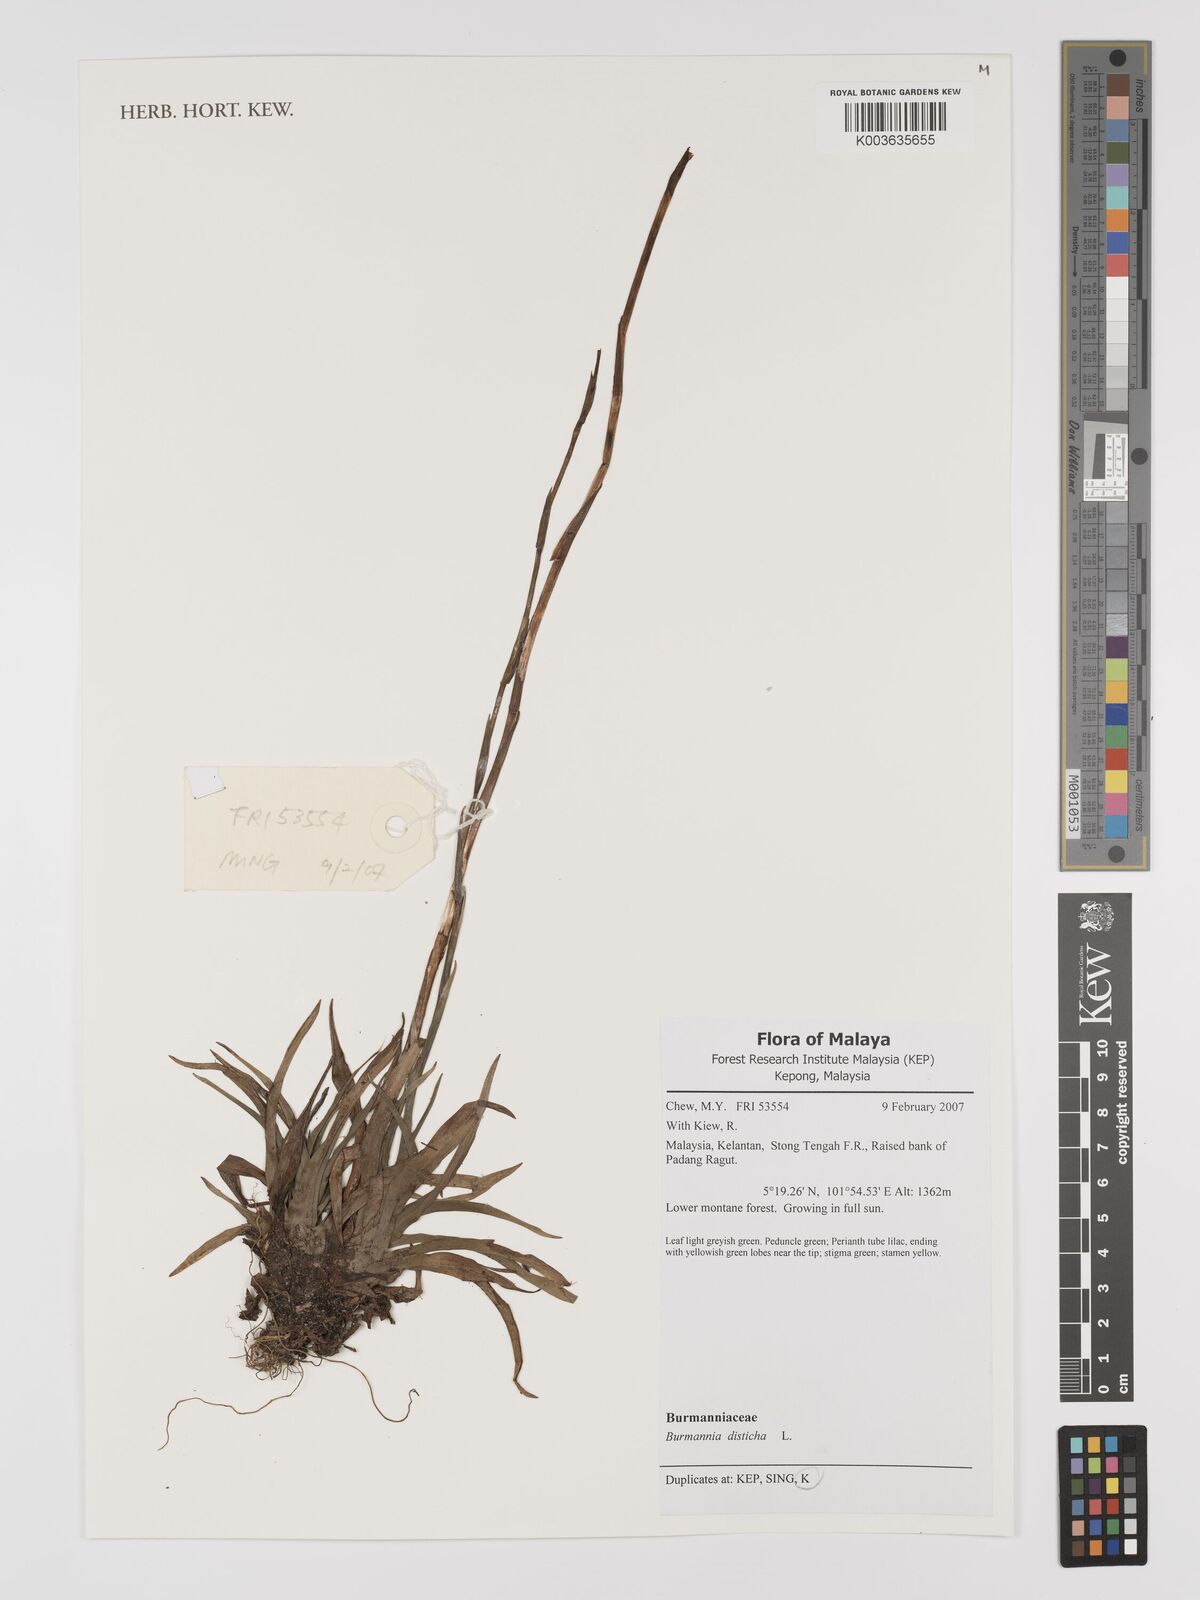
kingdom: Plantae
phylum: Tracheophyta
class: Liliopsida
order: Dioscoreales
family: Burmanniaceae
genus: Burmannia
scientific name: Burmannia disticha
